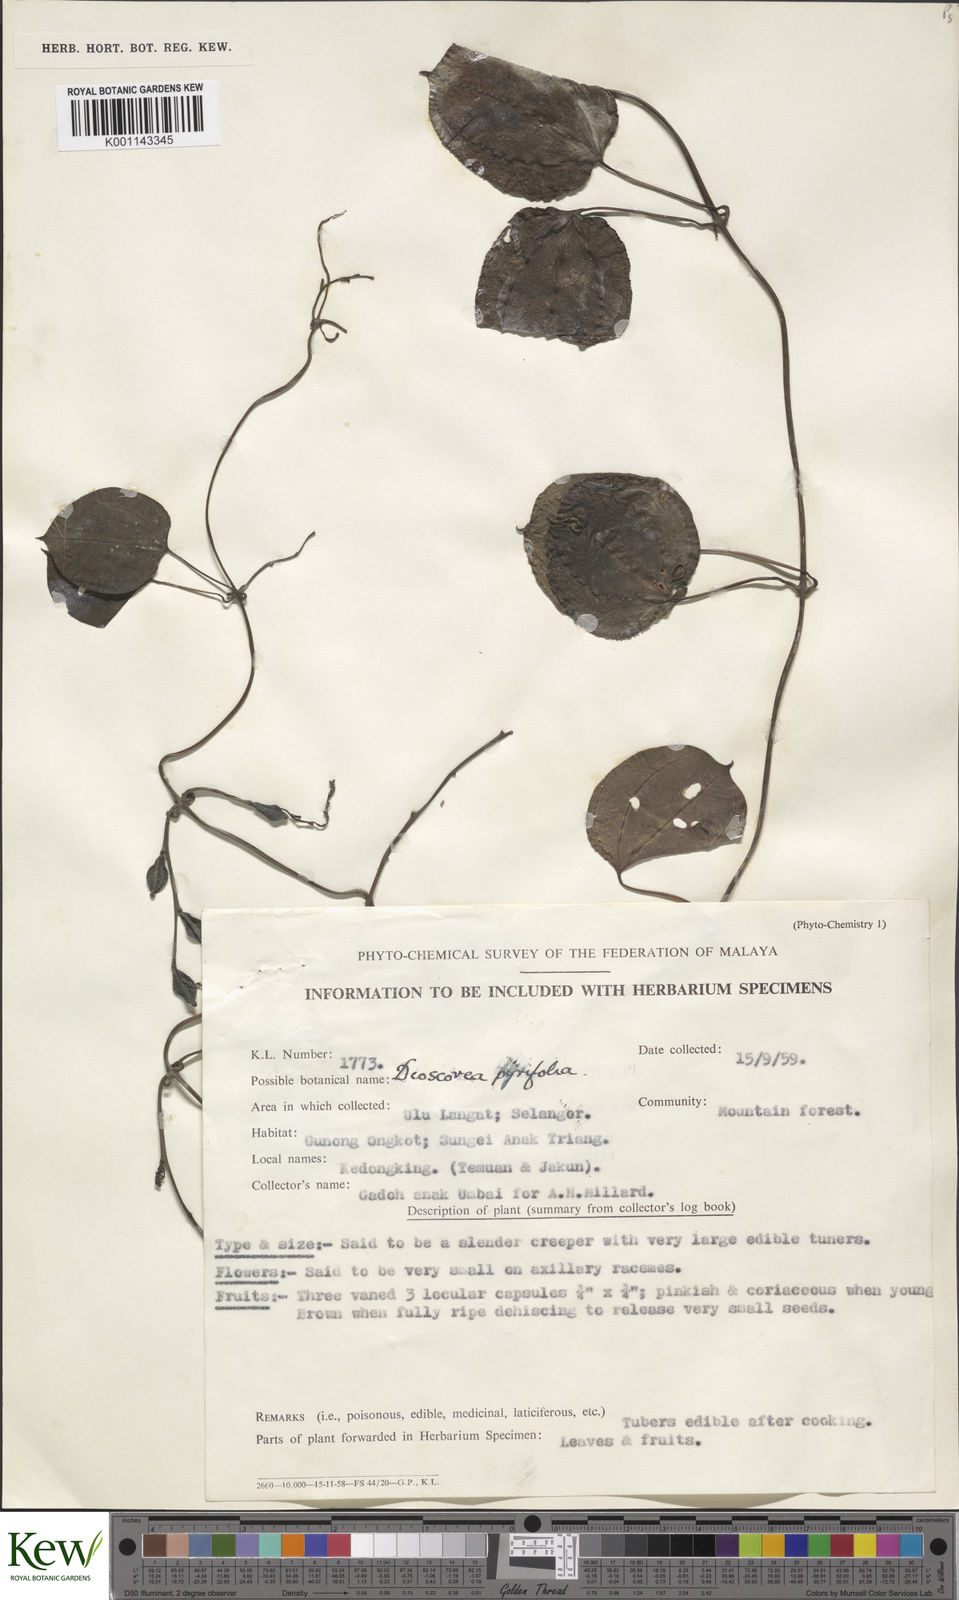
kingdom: Plantae
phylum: Tracheophyta
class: Liliopsida
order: Dioscoreales
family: Dioscoreaceae
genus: Dioscorea
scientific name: Dioscorea pyrifolia
